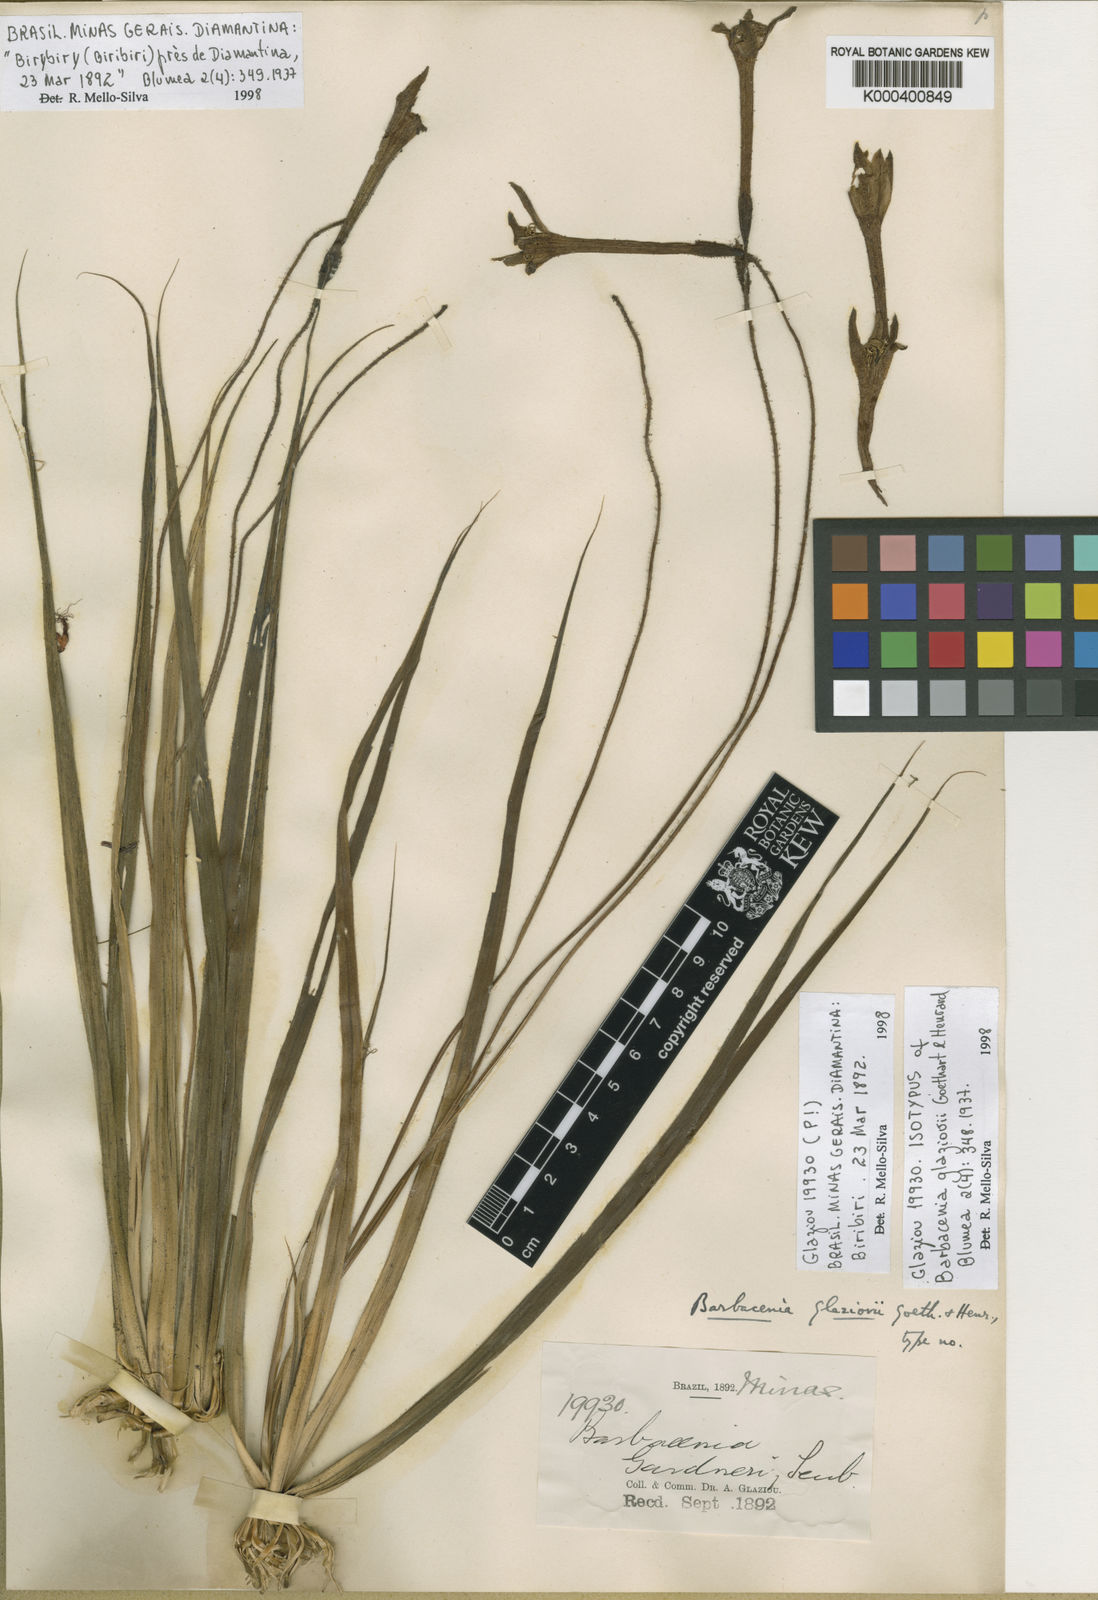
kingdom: Plantae
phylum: Tracheophyta
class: Liliopsida
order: Pandanales
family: Velloziaceae
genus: Barbacenia
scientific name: Barbacenia glaziovii
